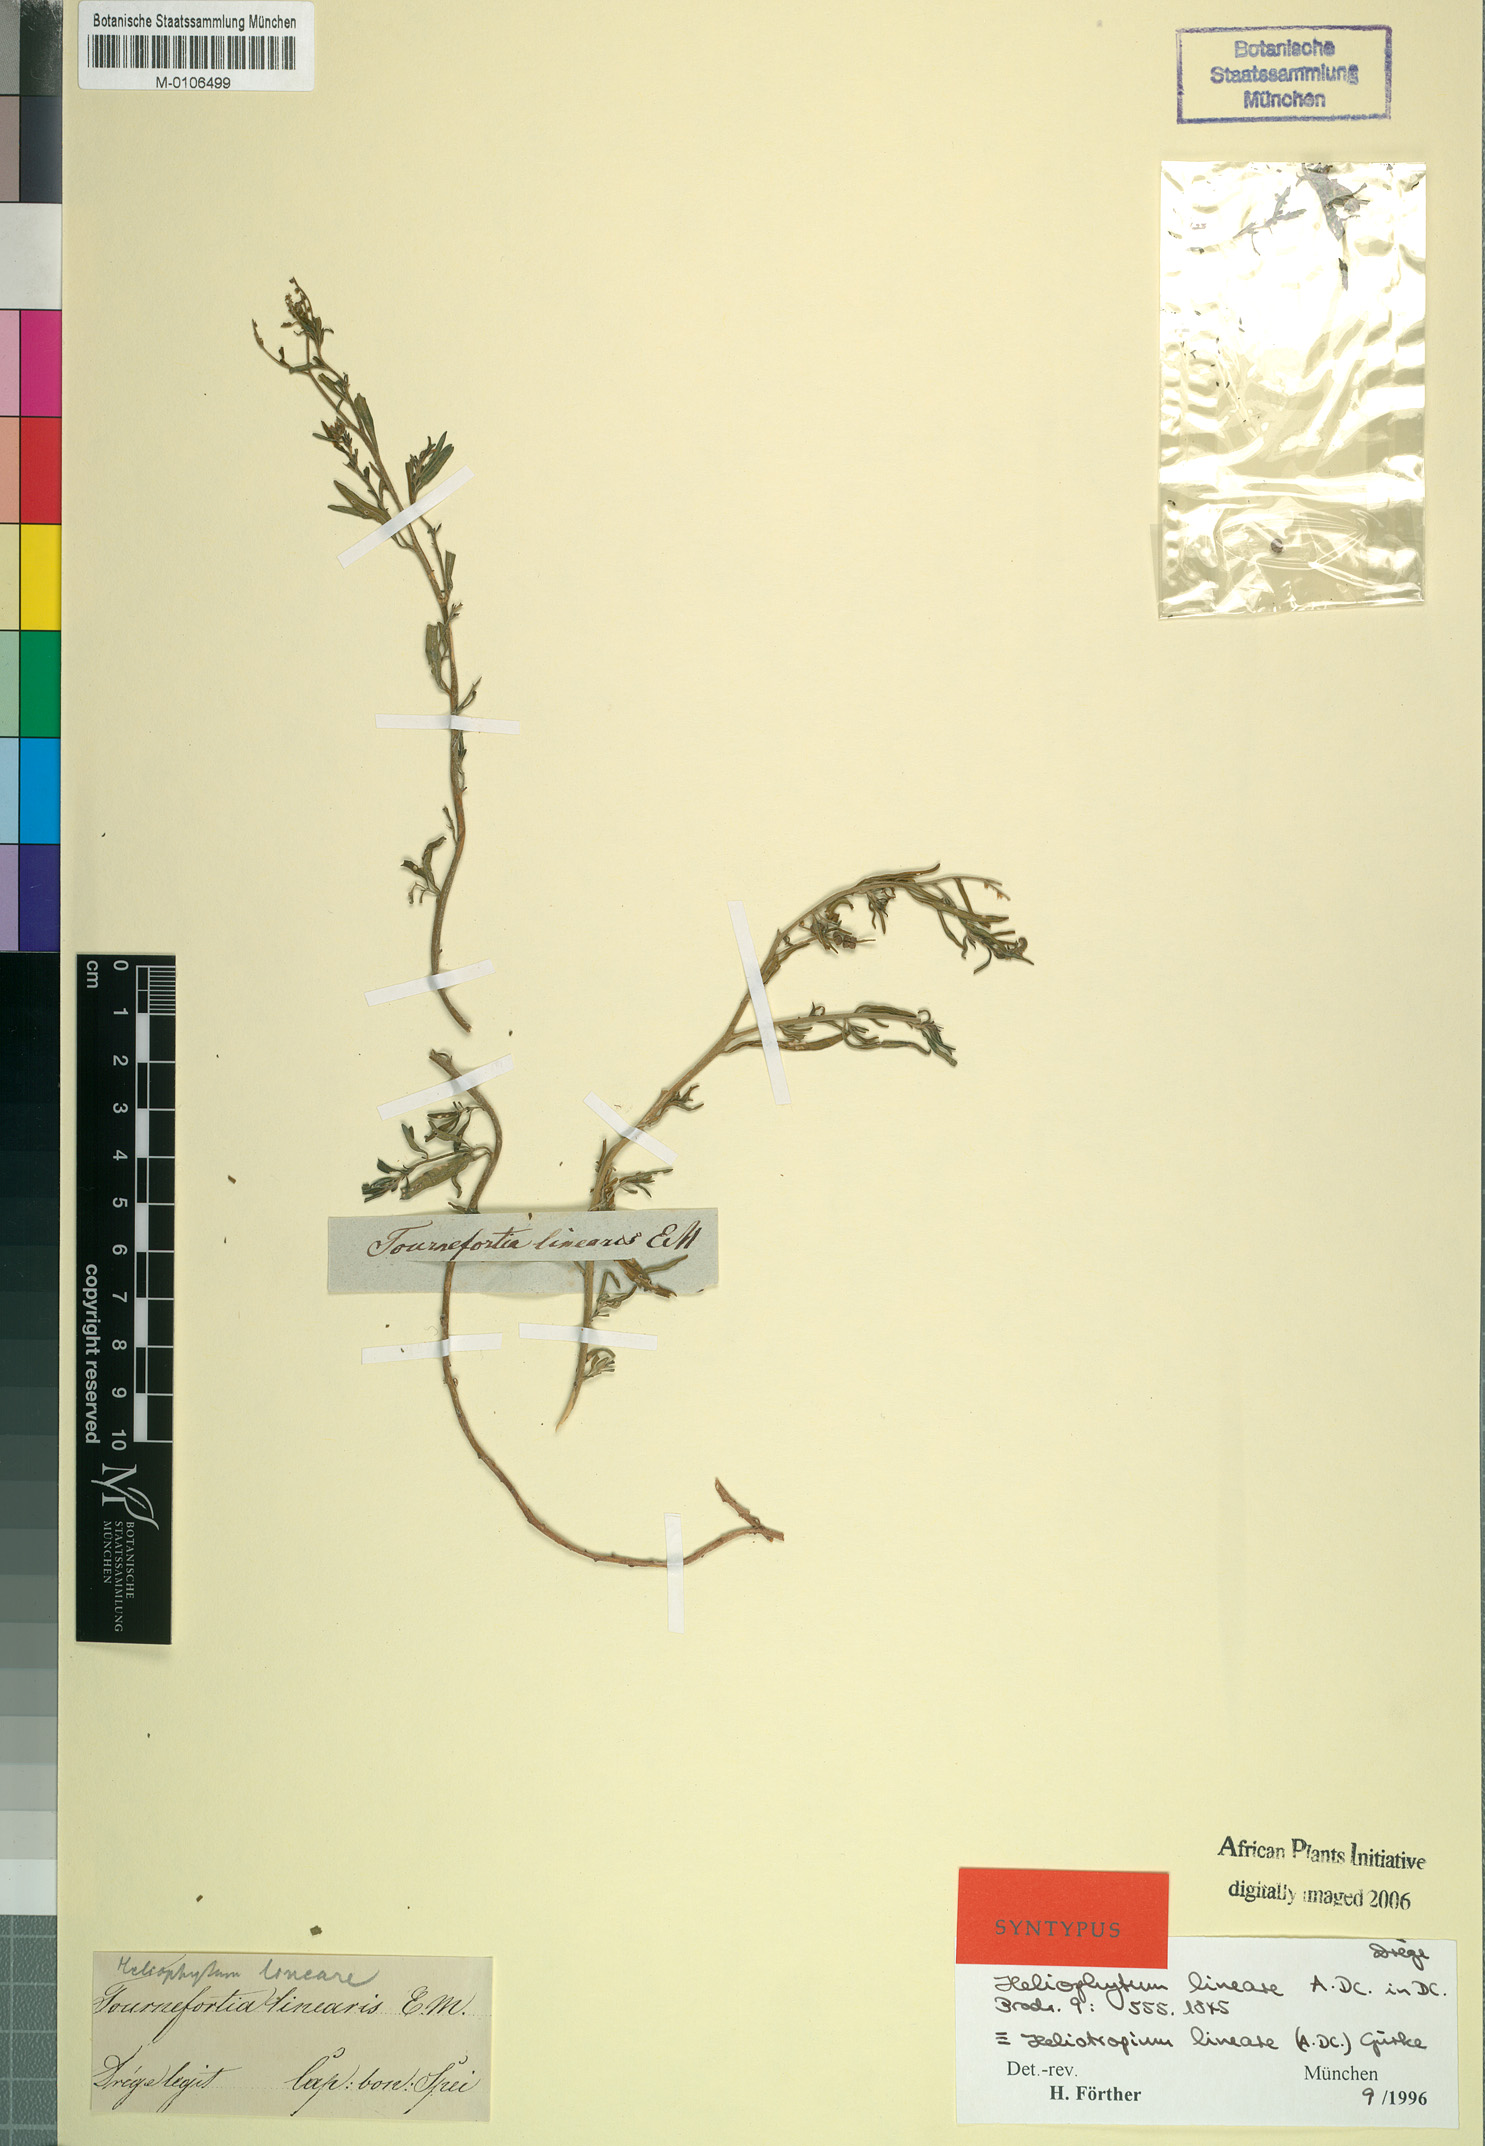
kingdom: Plantae
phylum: Tracheophyta
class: Magnoliopsida
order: Boraginales
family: Heliotropiaceae
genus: Heliotropium
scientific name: Heliotropium lineare
